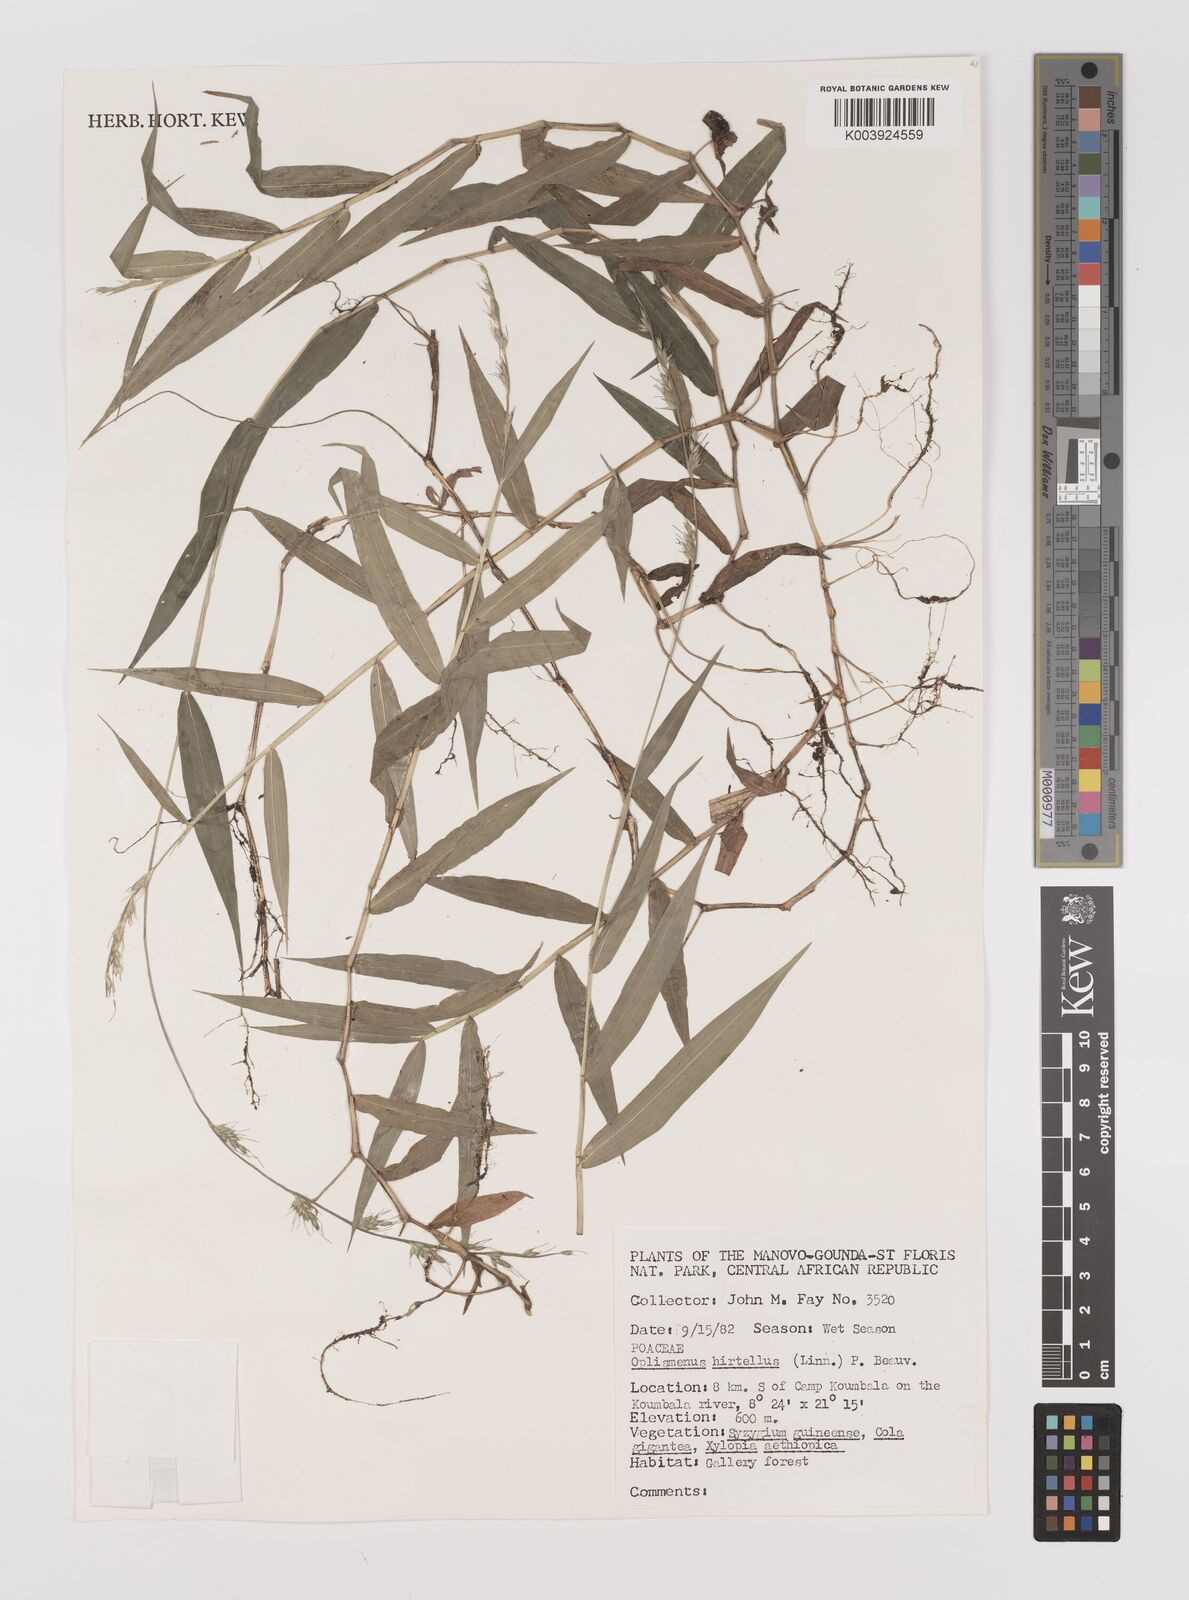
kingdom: Plantae
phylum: Tracheophyta
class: Liliopsida
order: Poales
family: Poaceae
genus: Oplismenus
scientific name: Oplismenus hirtellus
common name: Basketgrass
